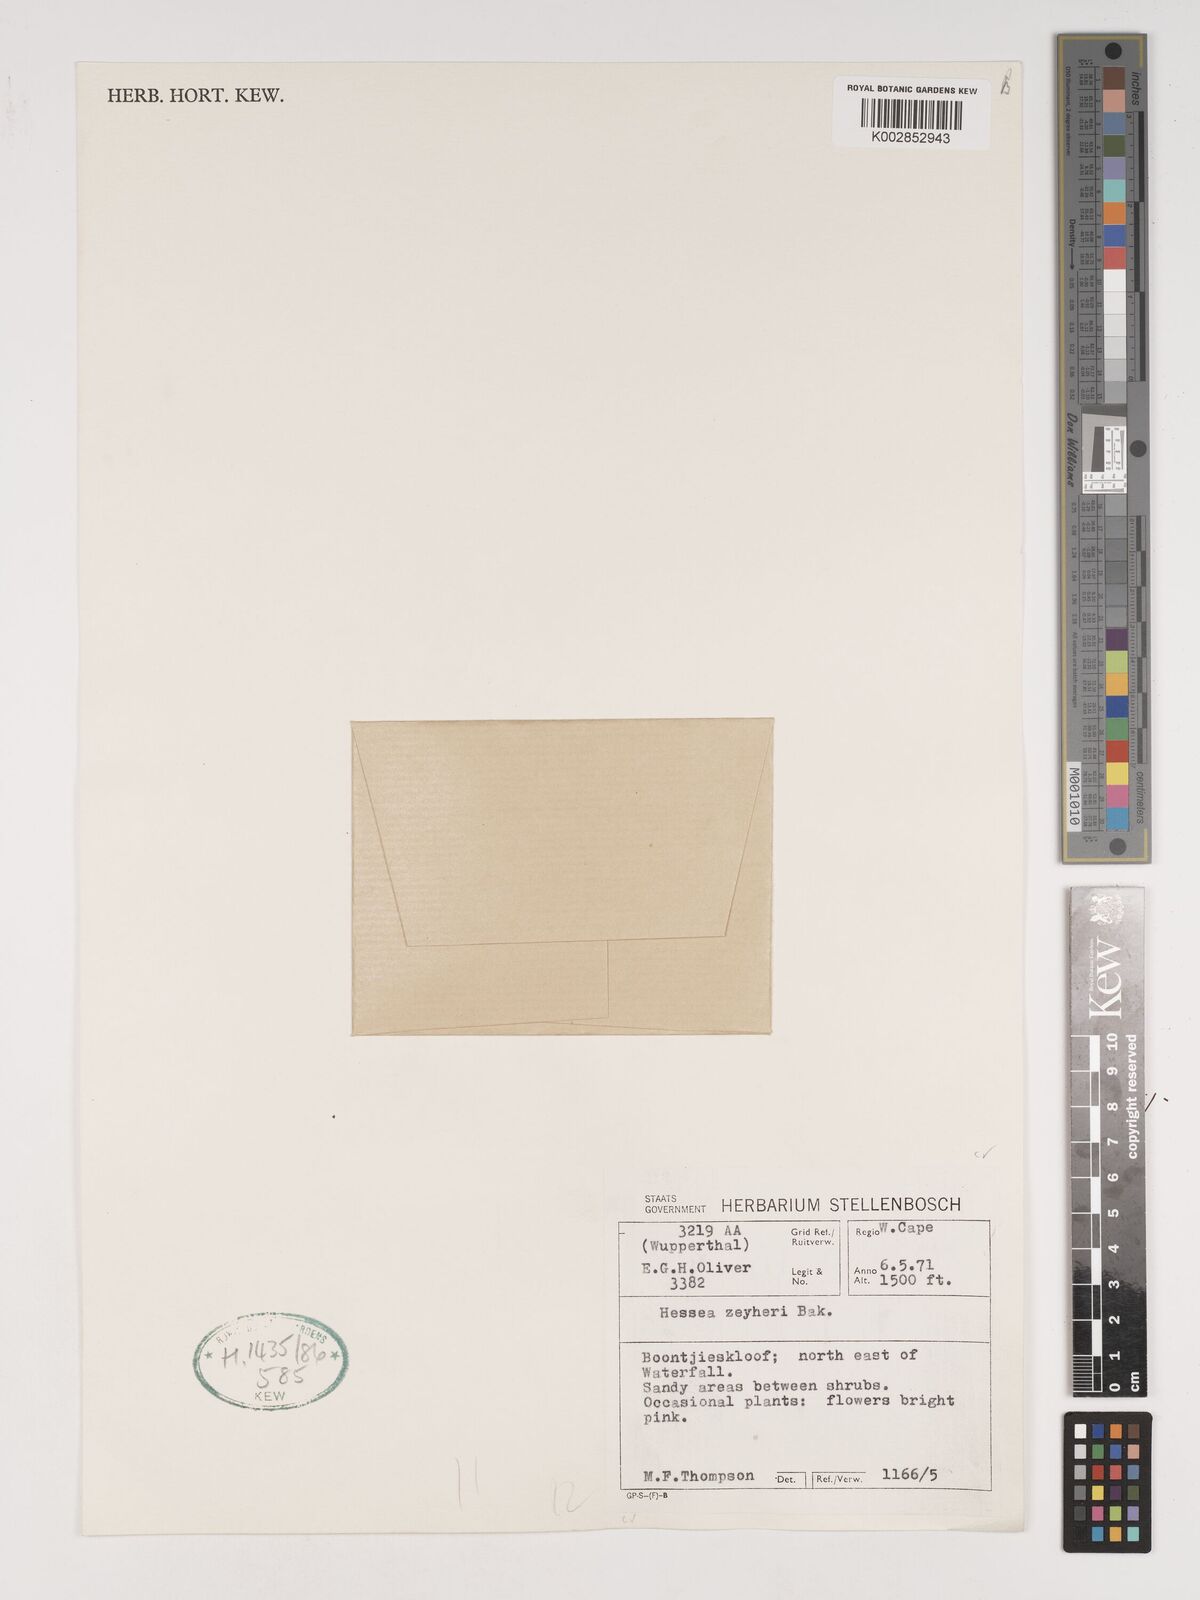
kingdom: Plantae
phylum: Tracheophyta
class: Liliopsida
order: Asparagales
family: Amaryllidaceae
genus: Hessea
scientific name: Hessea breviflora
